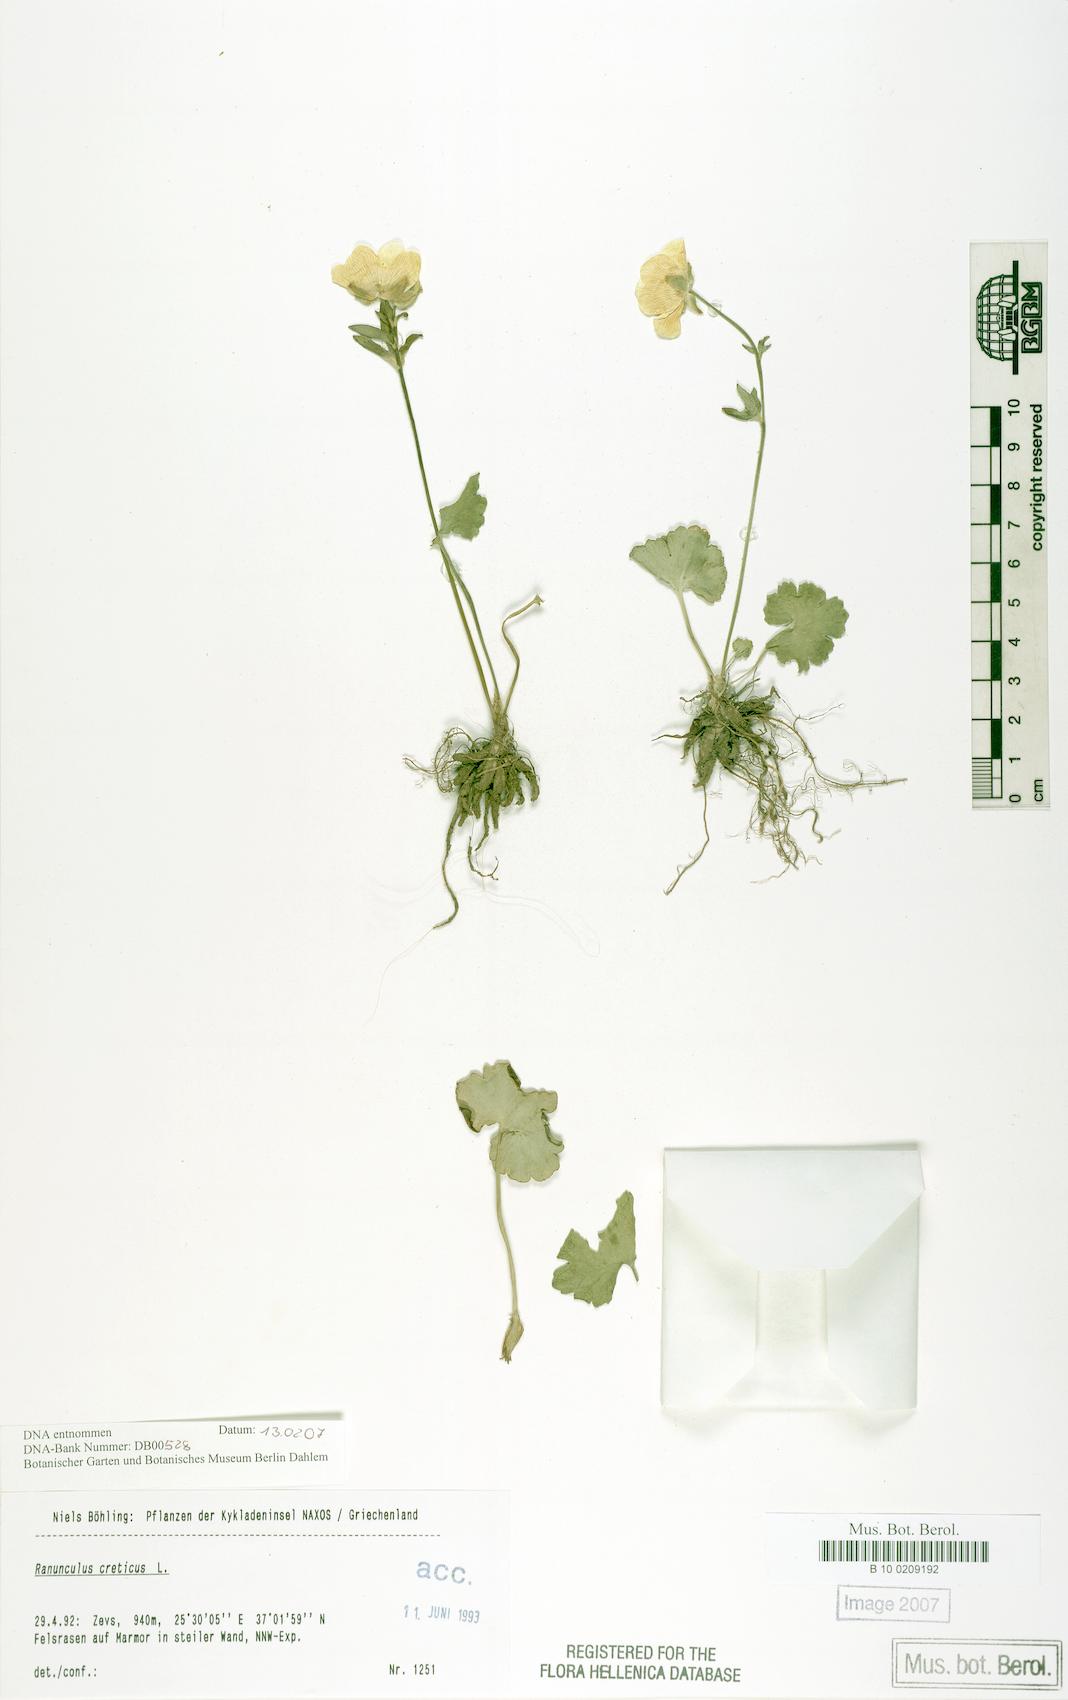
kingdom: Plantae
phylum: Tracheophyta
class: Magnoliopsida
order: Ranunculales
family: Ranunculaceae
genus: Ranunculus
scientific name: Ranunculus creticus
